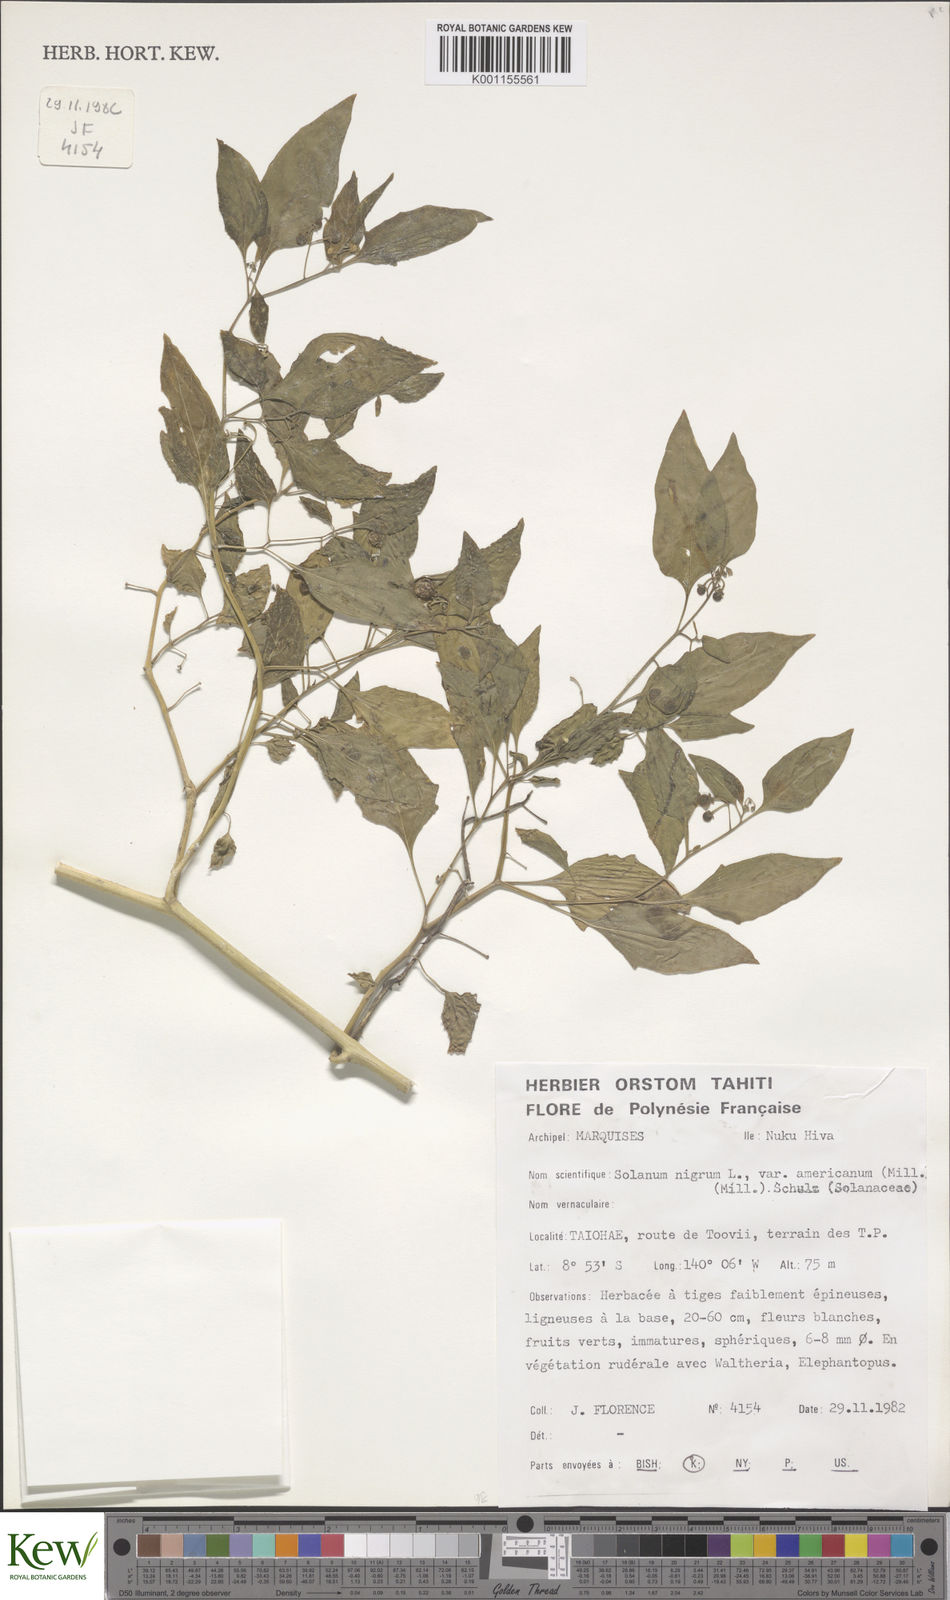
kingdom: Plantae
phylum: Tracheophyta
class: Magnoliopsida
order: Solanales
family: Solanaceae
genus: Solanum
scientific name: Solanum americanum
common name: American black nightshade
